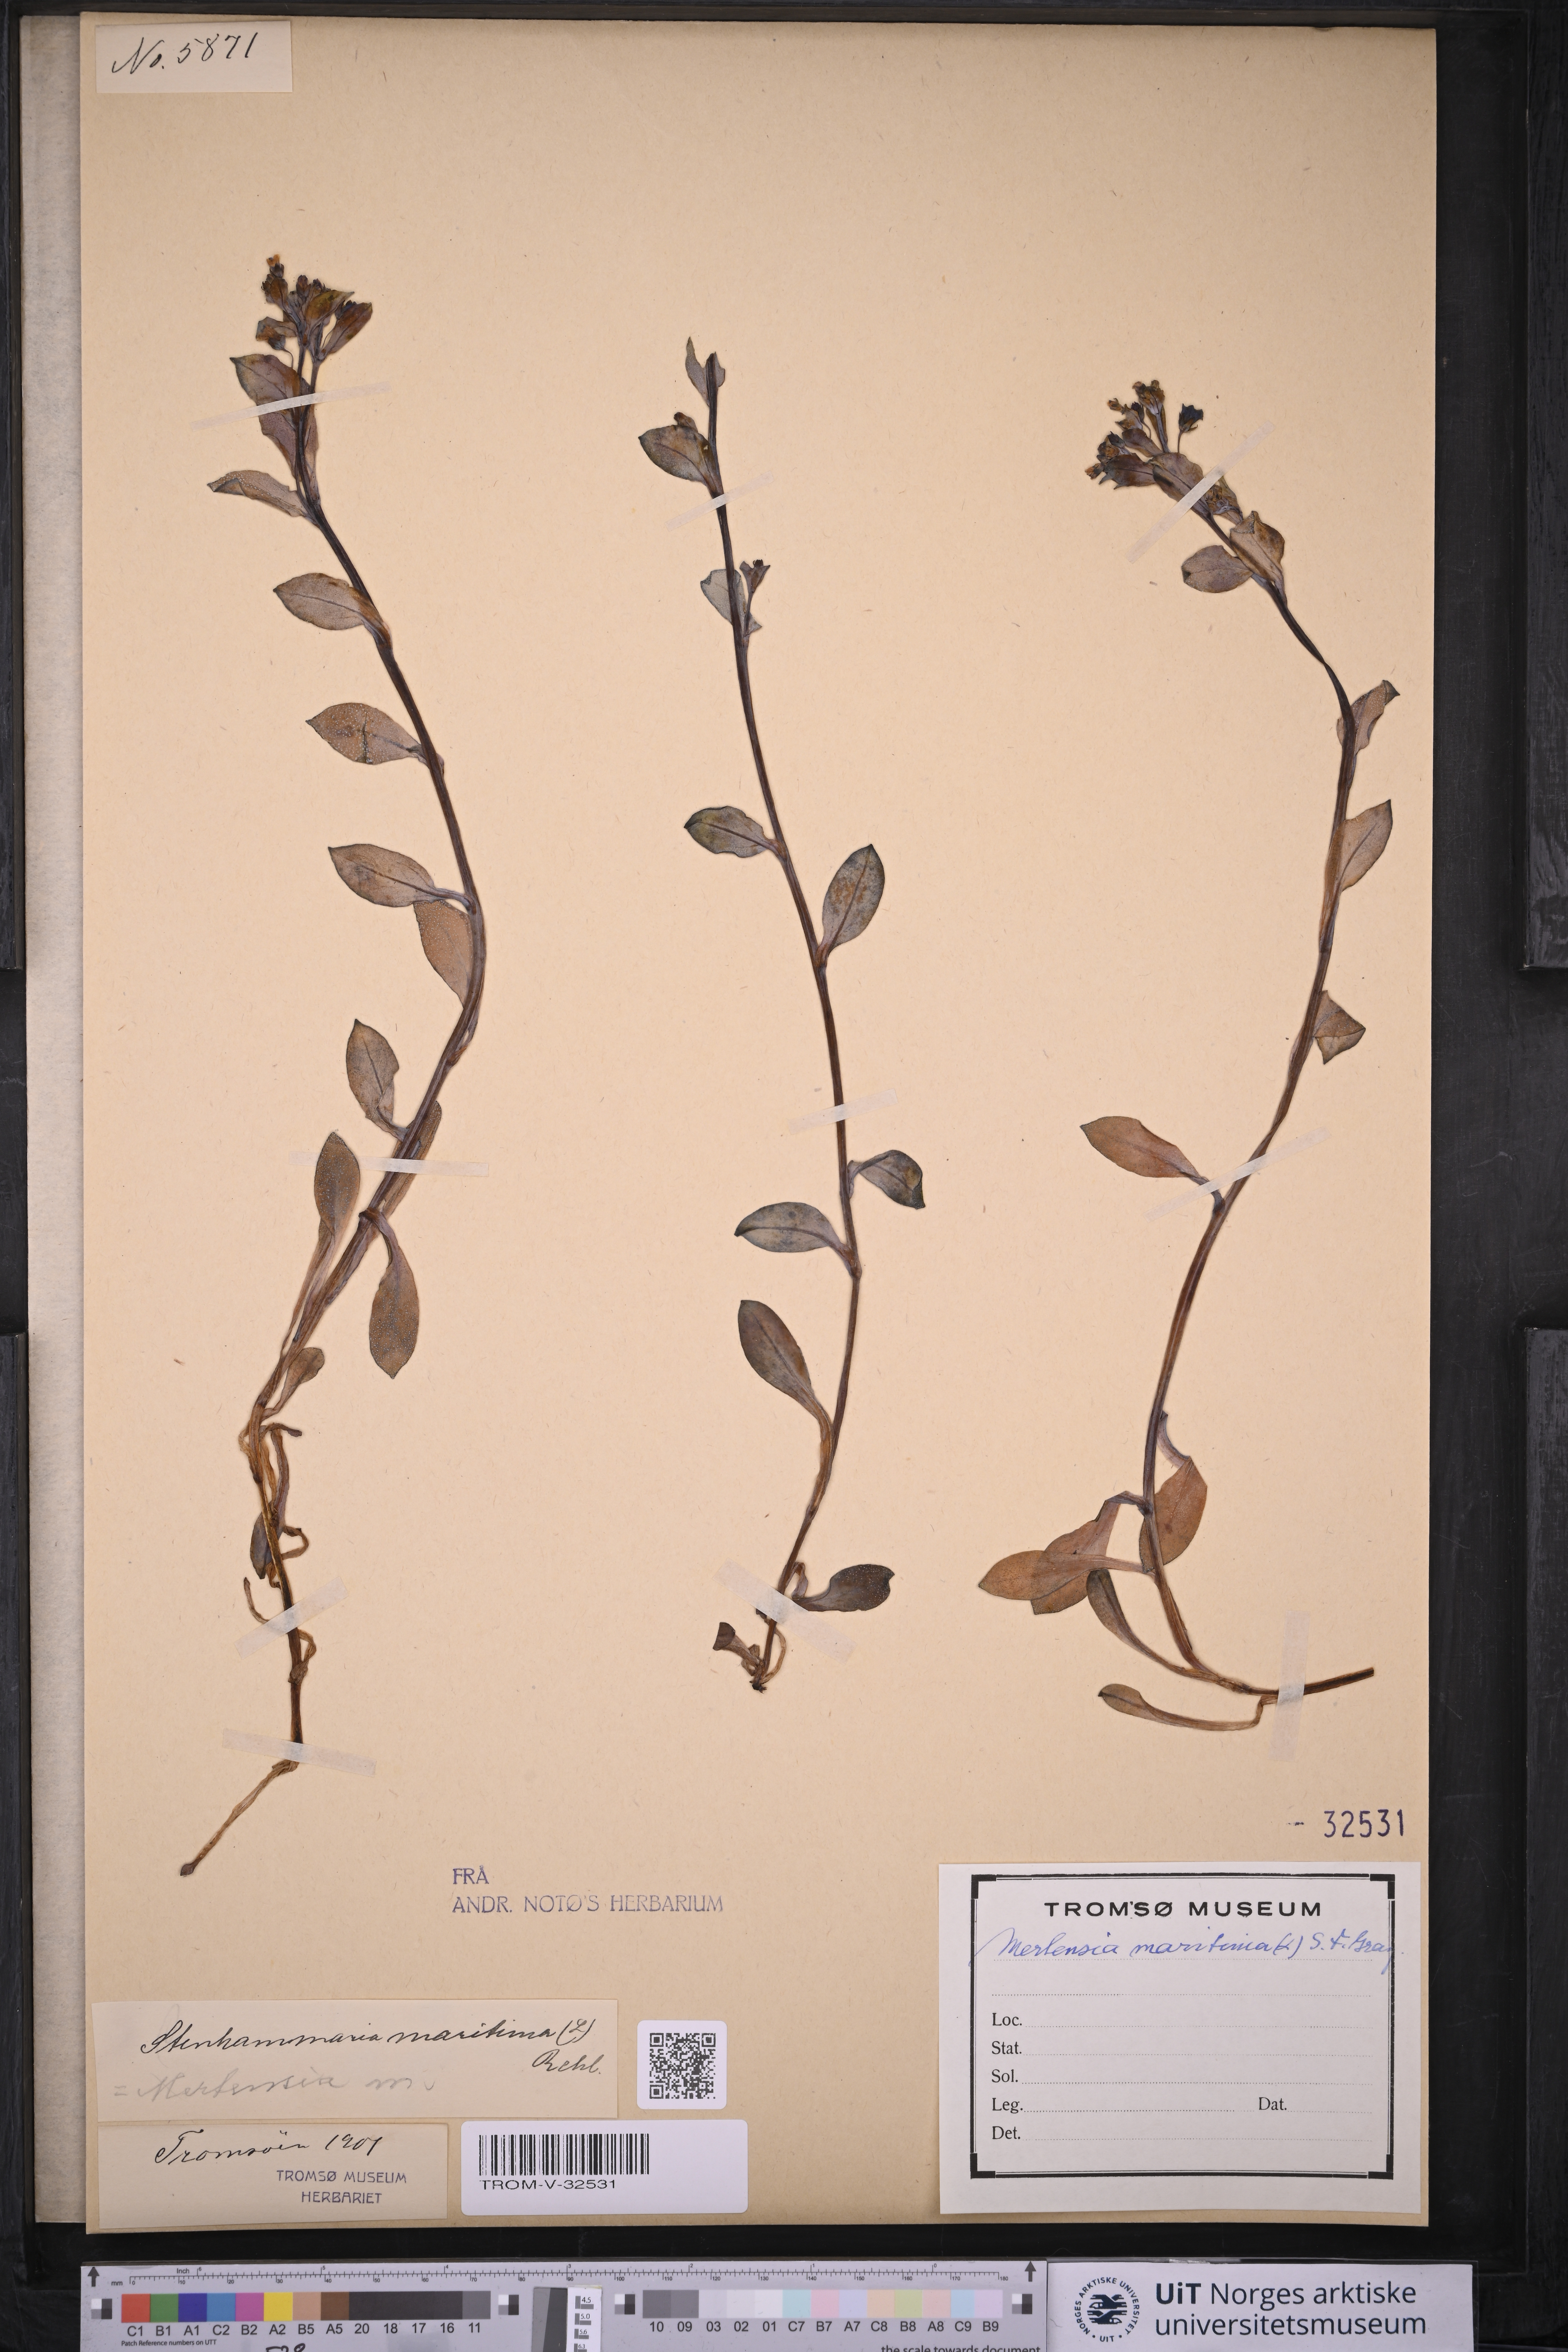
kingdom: Plantae
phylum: Tracheophyta
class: Magnoliopsida
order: Boraginales
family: Boraginaceae
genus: Mertensia
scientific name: Mertensia maritima
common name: Oysterplant
